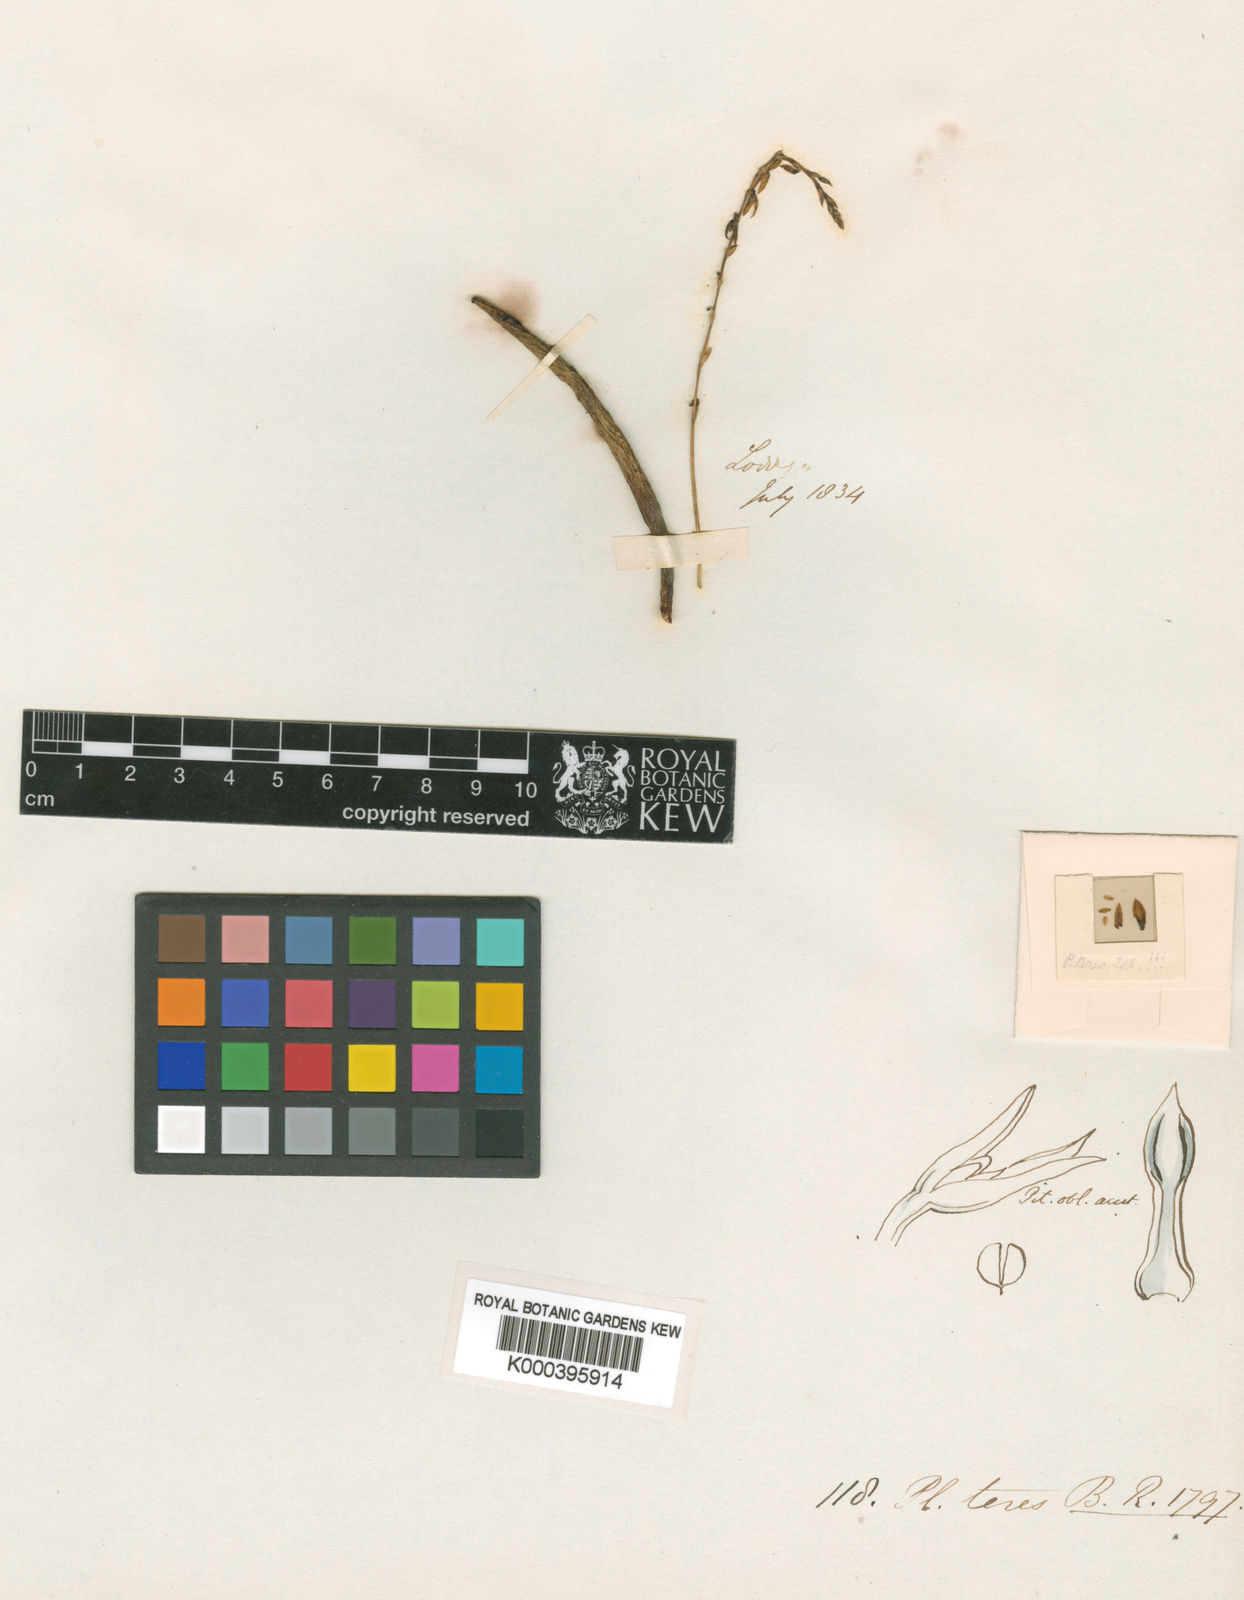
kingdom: Plantae
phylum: Tracheophyta
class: Liliopsida
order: Asparagales
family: Orchidaceae
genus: Acianthera
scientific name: Acianthera teres
